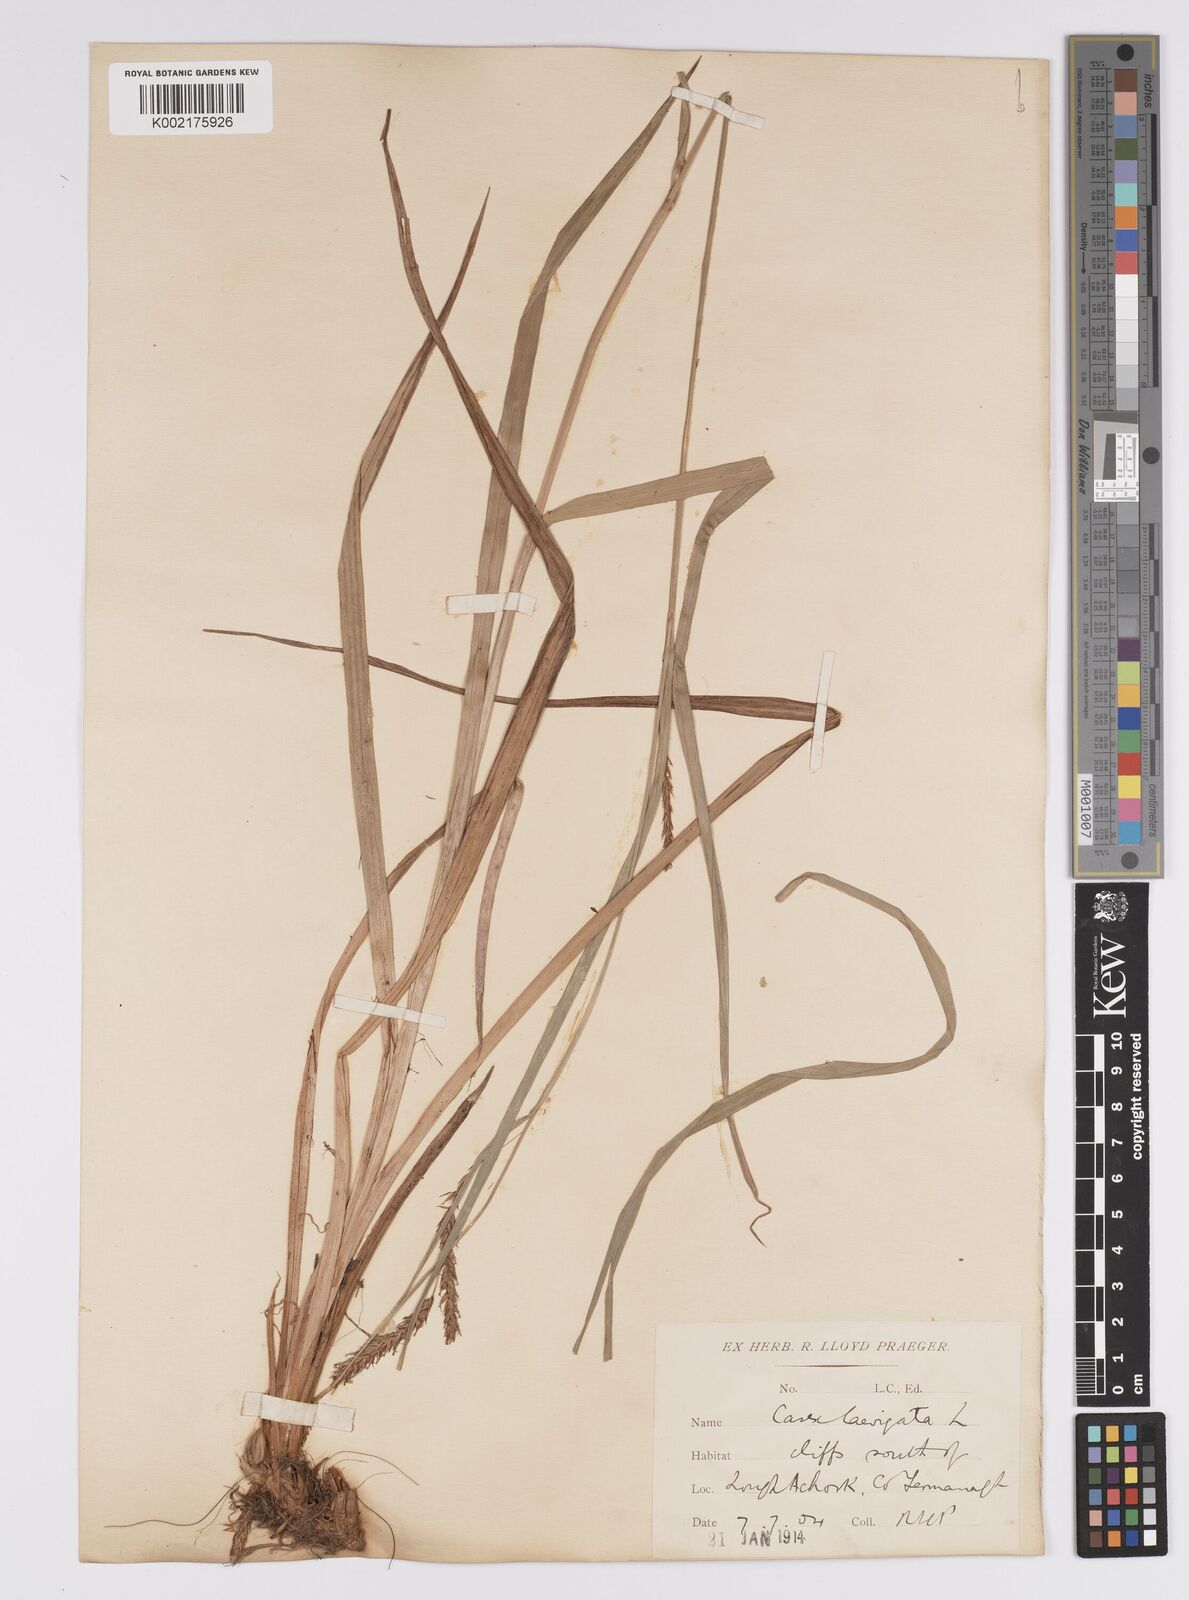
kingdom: Plantae
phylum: Tracheophyta
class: Liliopsida
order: Poales
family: Cyperaceae
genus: Carex
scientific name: Carex laevigata
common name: Smooth-stalked sedge
